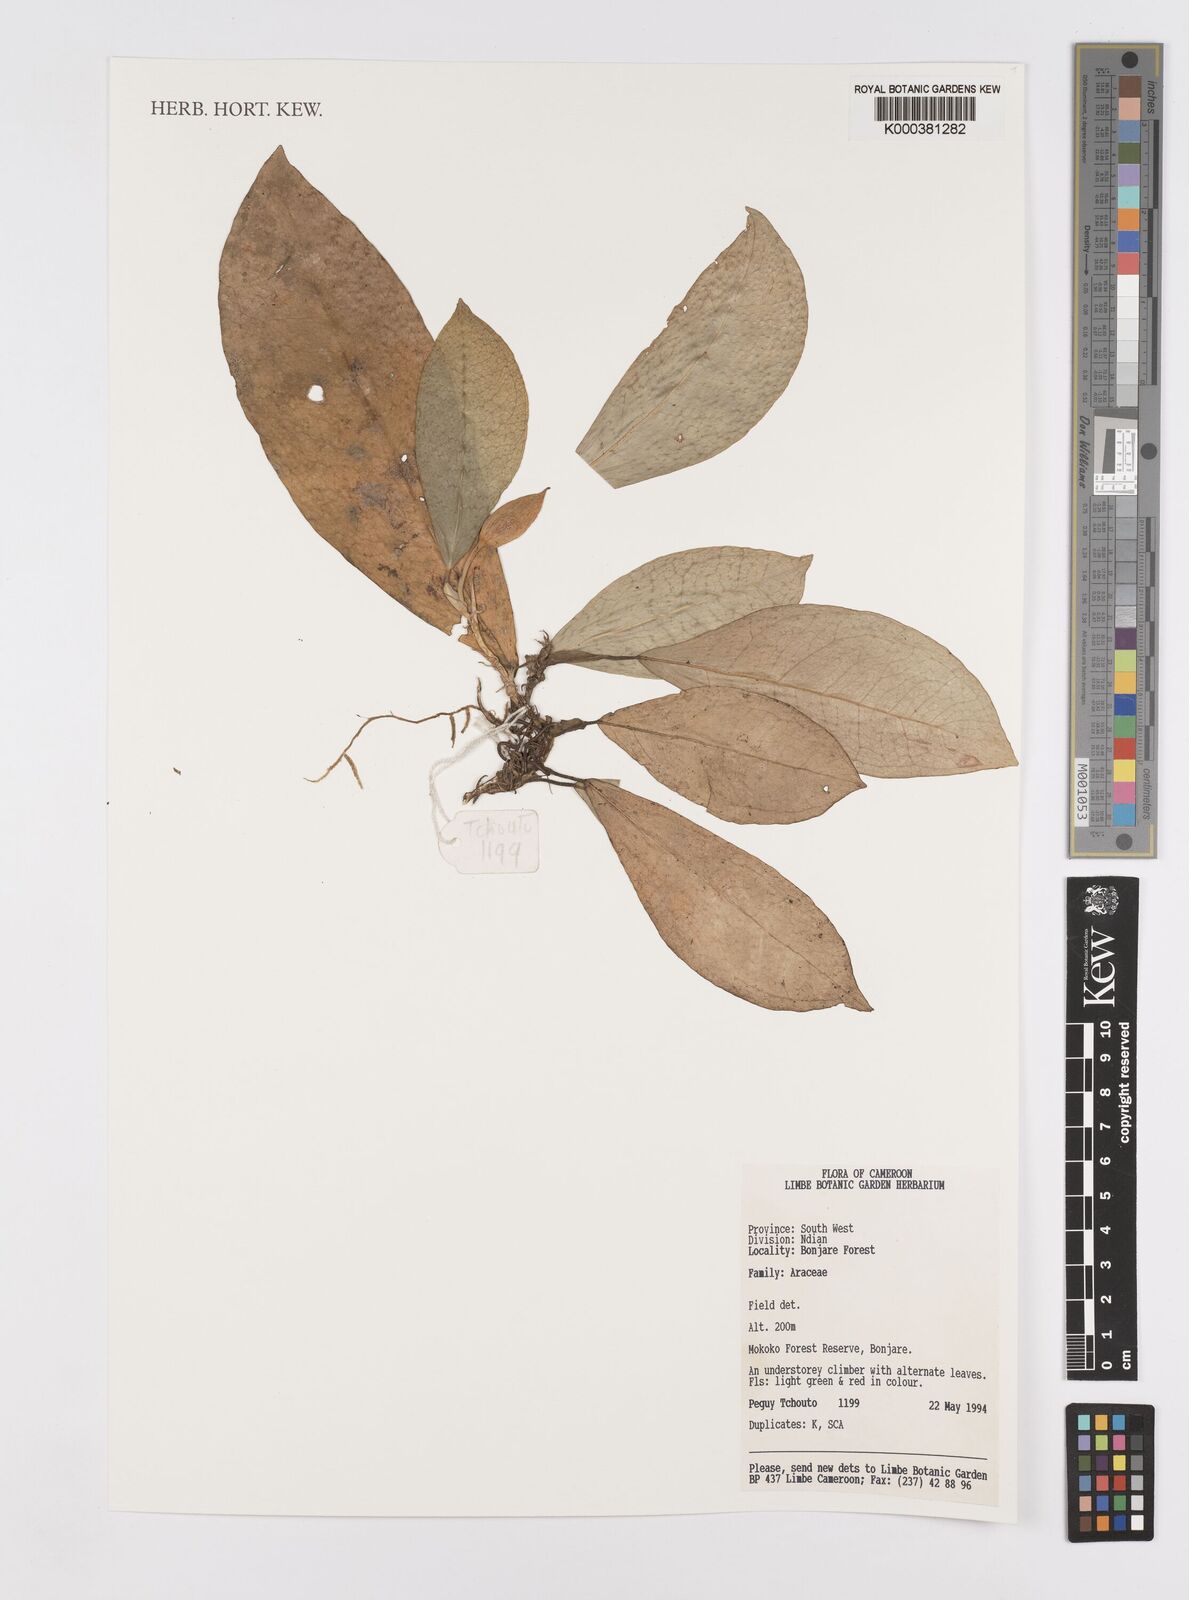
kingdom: Plantae
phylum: Tracheophyta
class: Liliopsida
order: Alismatales
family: Araceae
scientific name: Araceae
